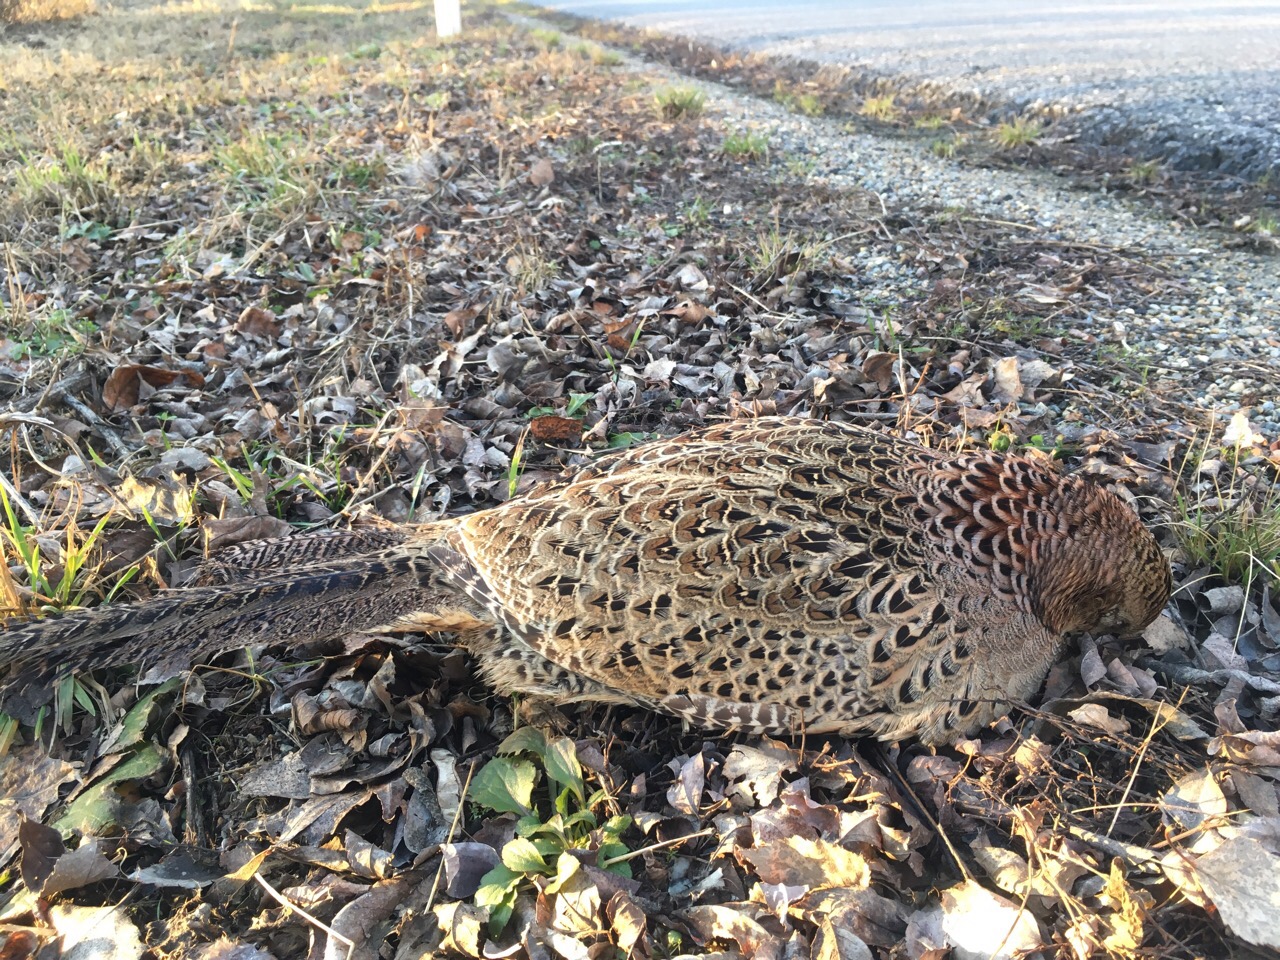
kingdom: Animalia
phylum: Chordata
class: Aves
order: Galliformes
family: Phasianidae
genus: Phasianus
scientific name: Phasianus colchicus
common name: Common pheasant
